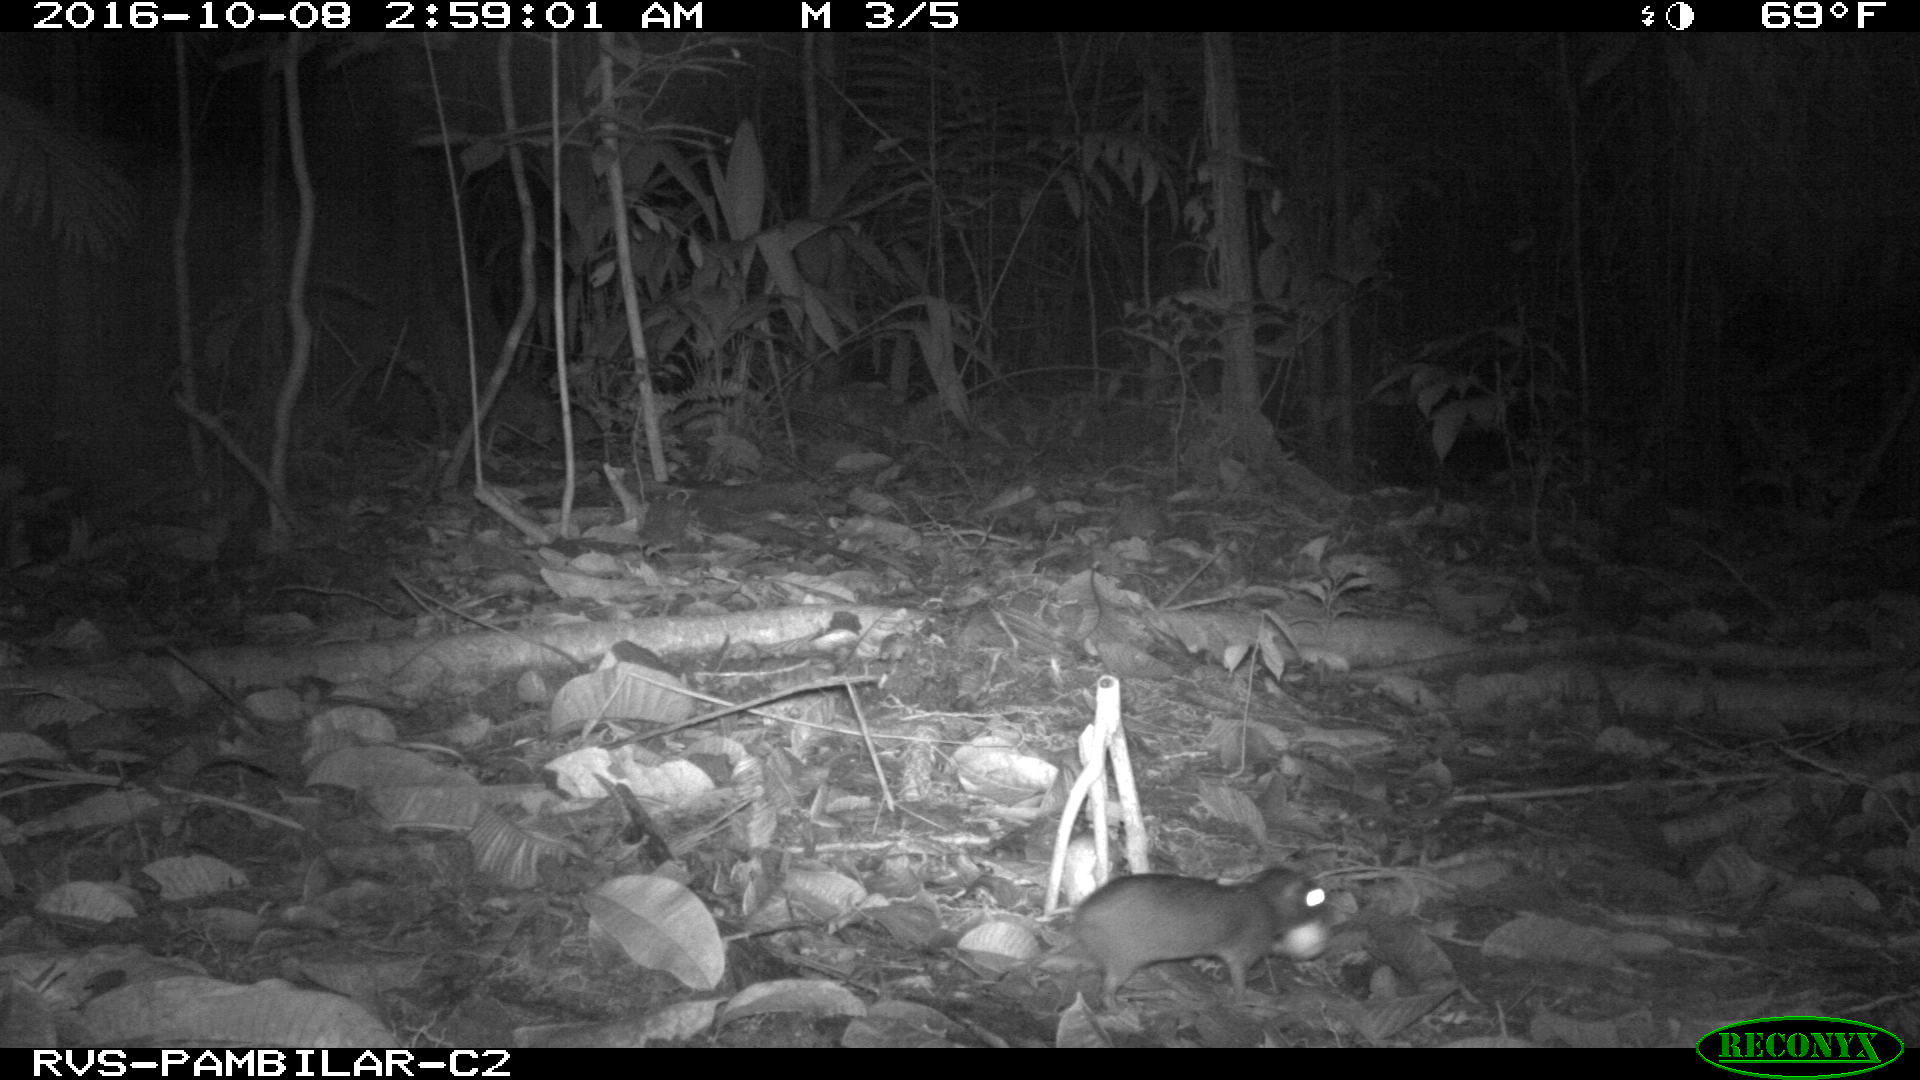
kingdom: Animalia
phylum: Chordata
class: Mammalia
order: Rodentia
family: Dasyproctidae
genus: Dasyprocta
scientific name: Dasyprocta punctata
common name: Central american agouti
